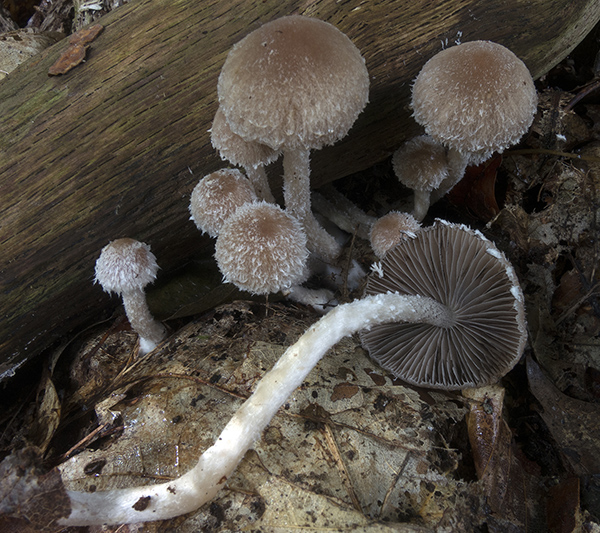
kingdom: Fungi
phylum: Basidiomycota
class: Agaricomycetes
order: Agaricales
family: Psathyrellaceae
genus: Psathyrella
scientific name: Psathyrella impexa
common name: rødmende mørkhat
